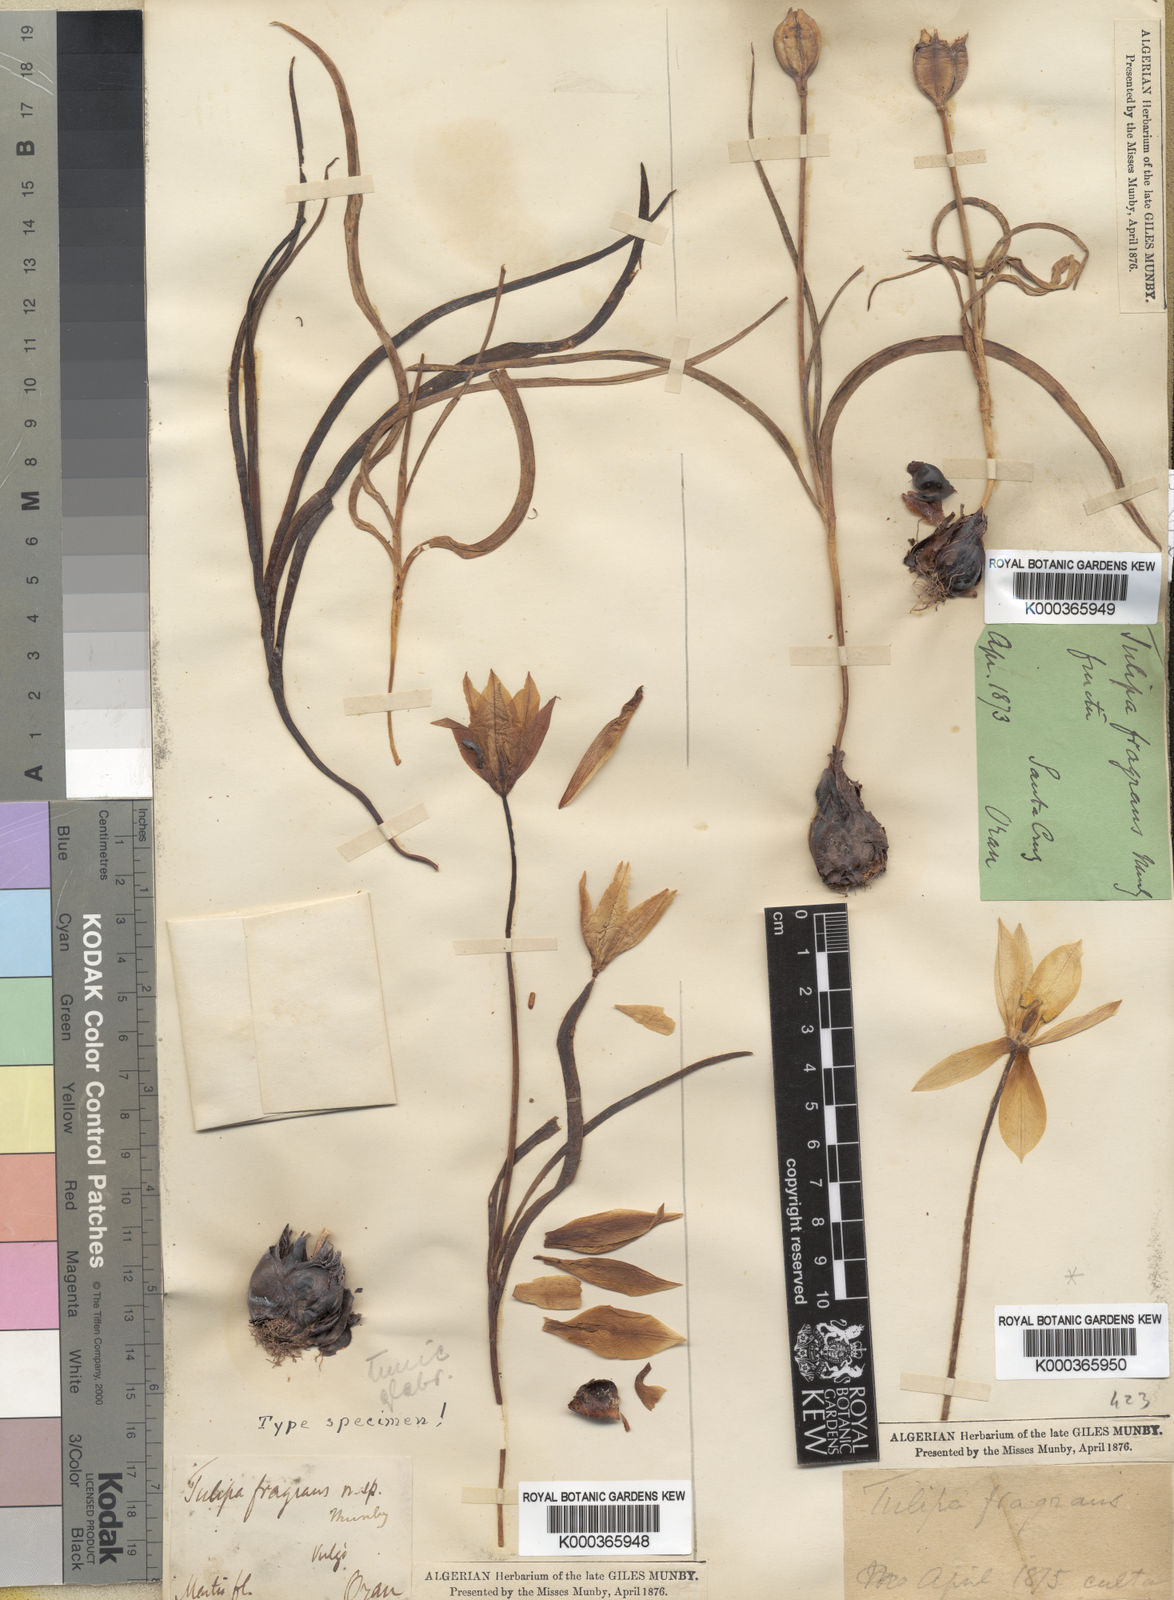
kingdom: Plantae
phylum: Tracheophyta
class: Liliopsida
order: Liliales
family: Liliaceae
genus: Tulipa
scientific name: Tulipa sylvestris
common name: Wild tulip
